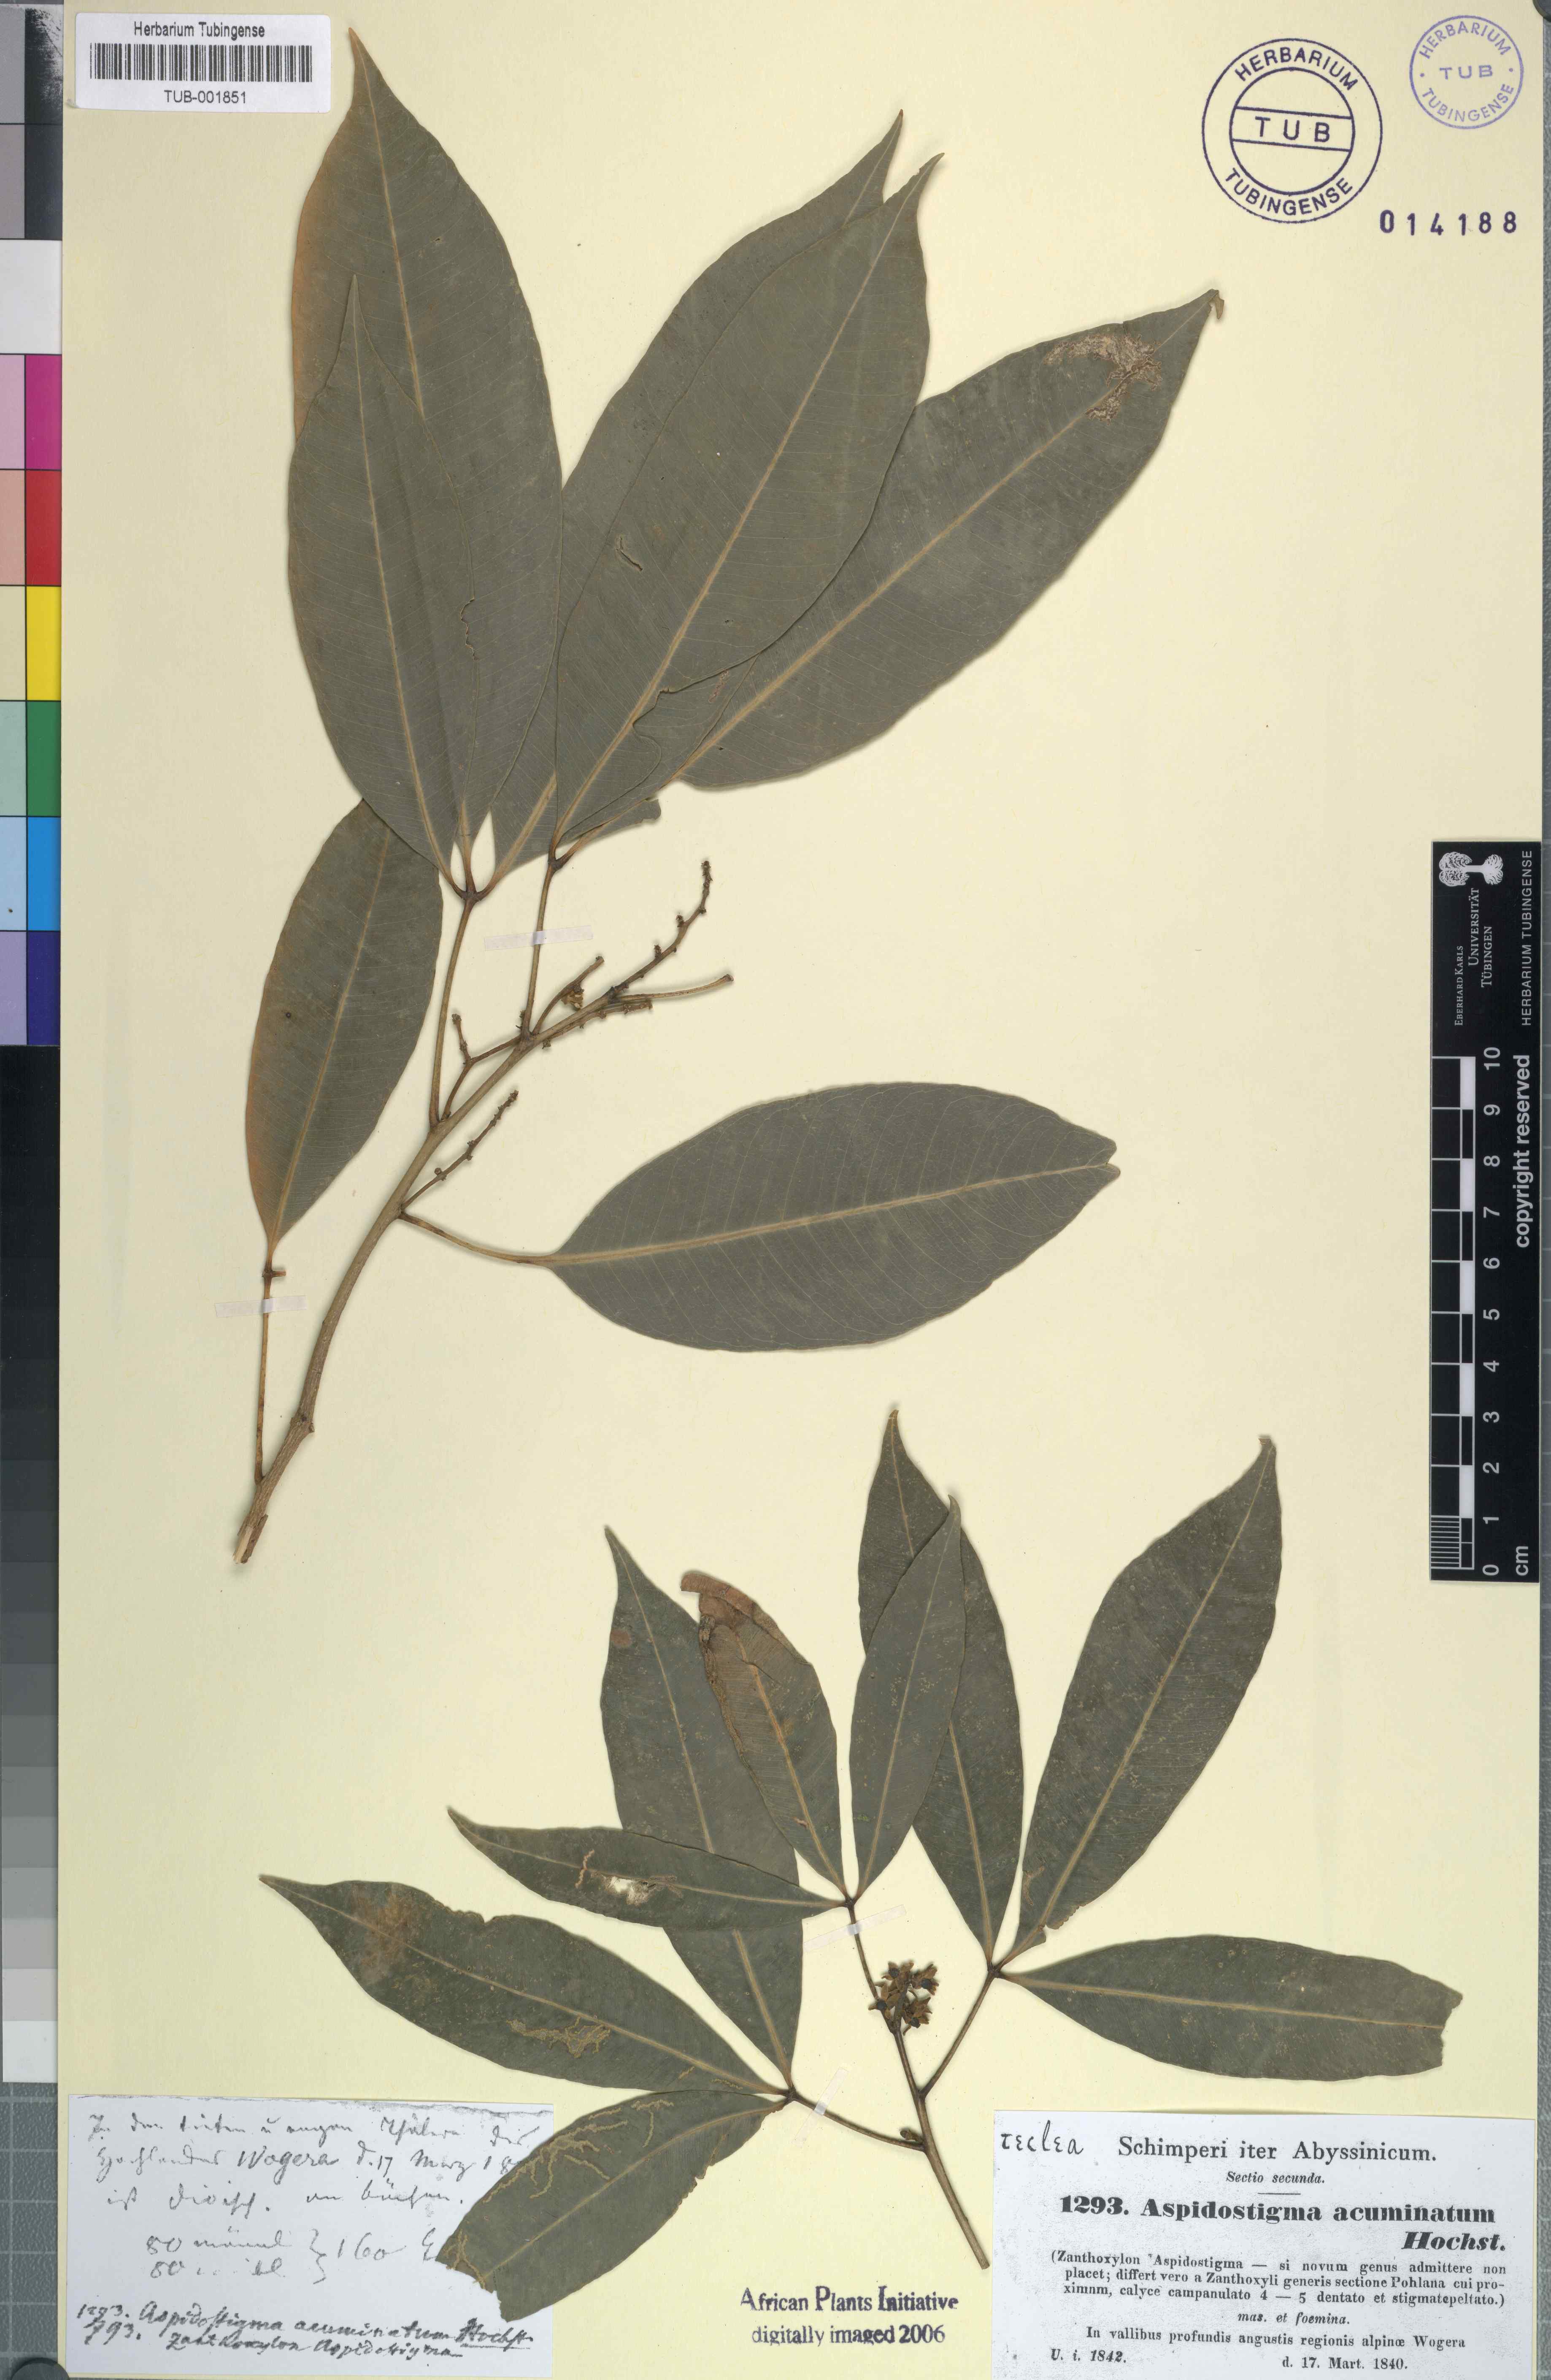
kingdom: Plantae
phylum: Tracheophyta
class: Magnoliopsida
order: Sapindales
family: Rutaceae
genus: Vepris
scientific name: Vepris nobilis
